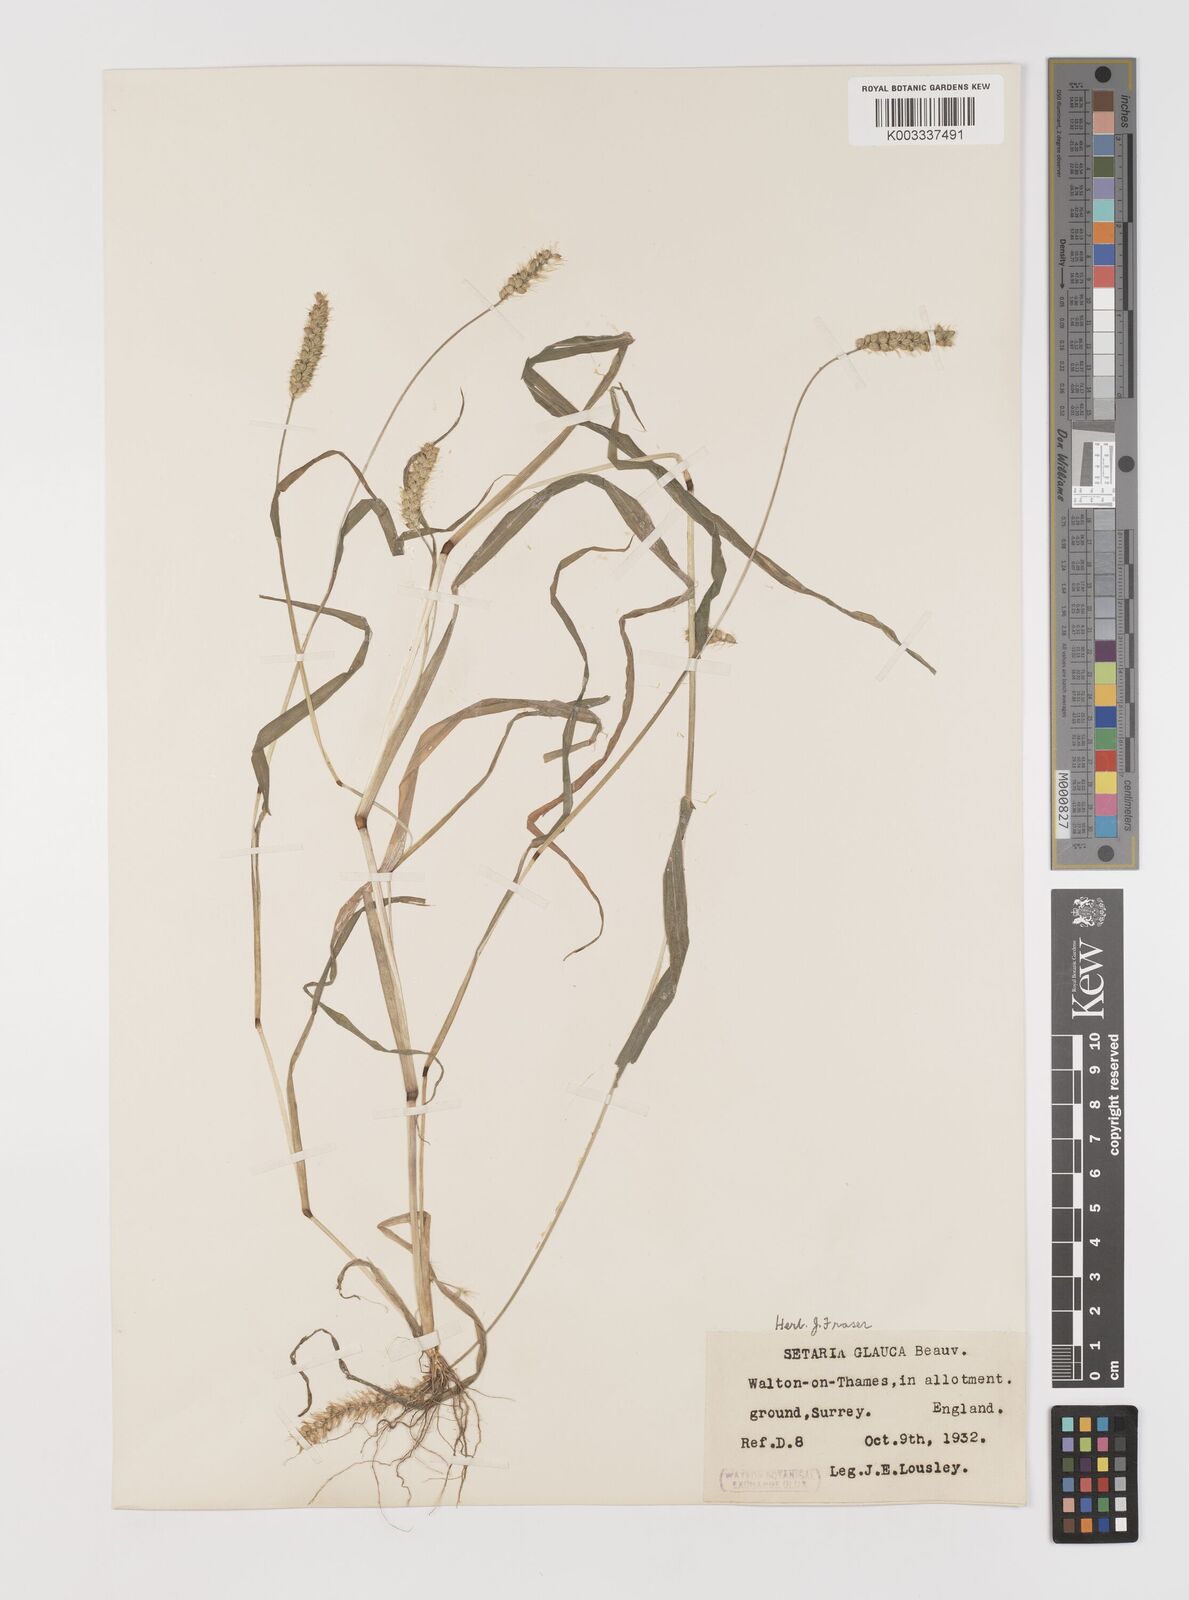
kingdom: Plantae
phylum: Tracheophyta
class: Liliopsida
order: Poales
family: Poaceae
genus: Setaria
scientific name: Setaria pumila
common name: Yellow bristle-grass
